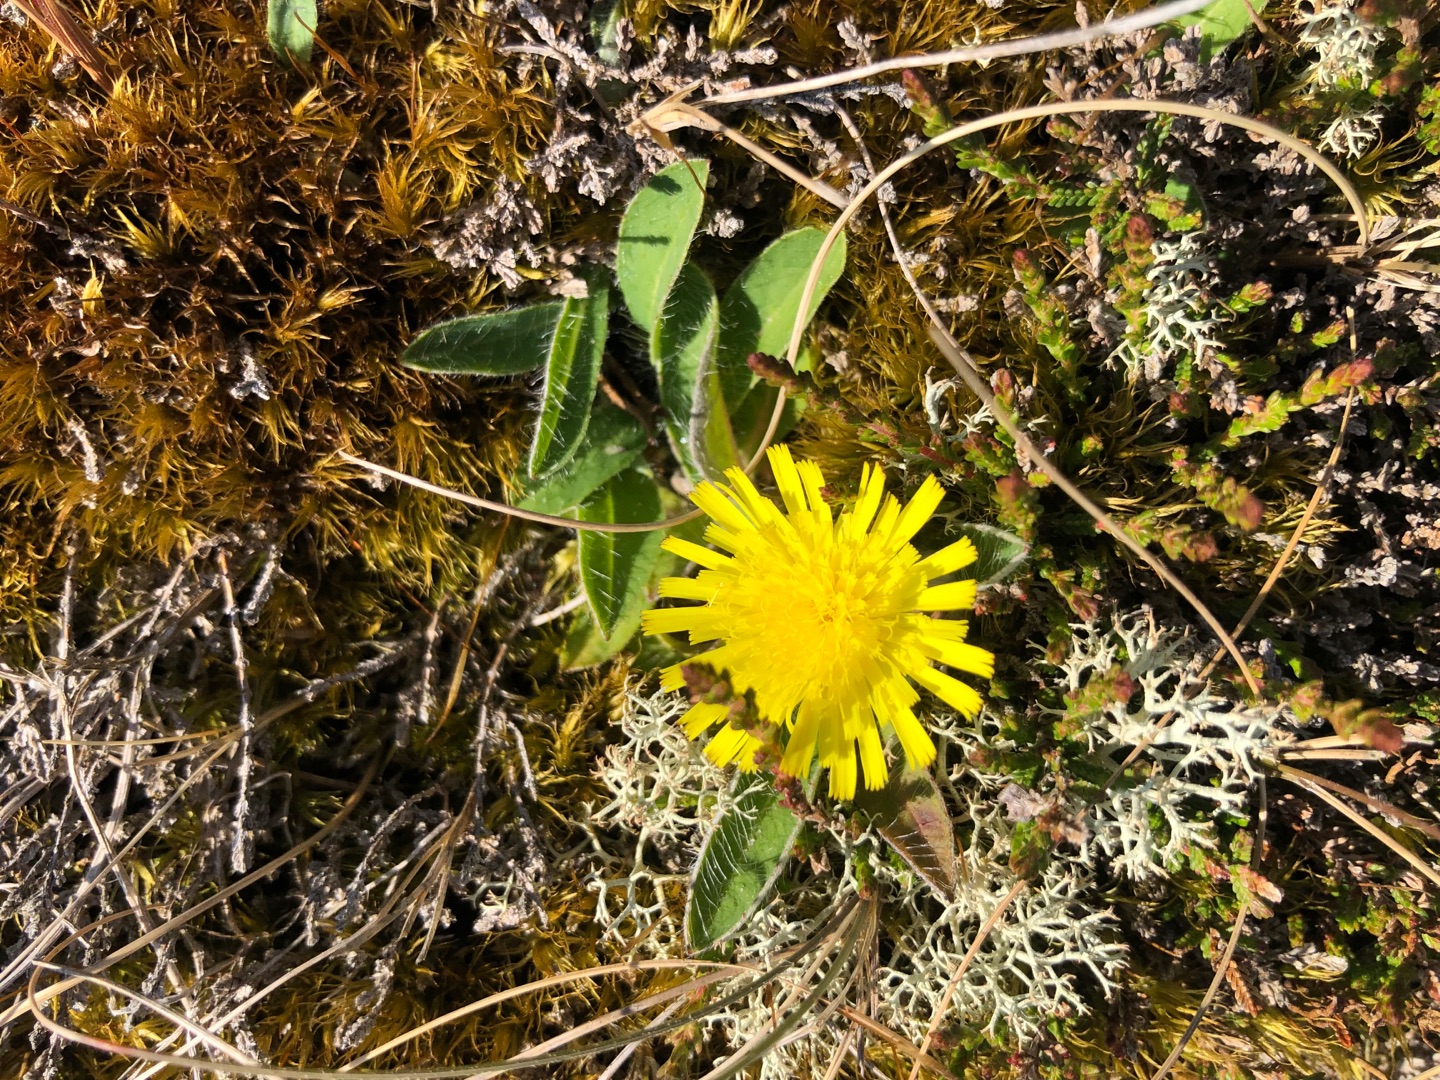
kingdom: Plantae
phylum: Tracheophyta
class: Magnoliopsida
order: Asterales
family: Asteraceae
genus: Pilosella
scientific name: Pilosella officinarum
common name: Håret høgeurt
